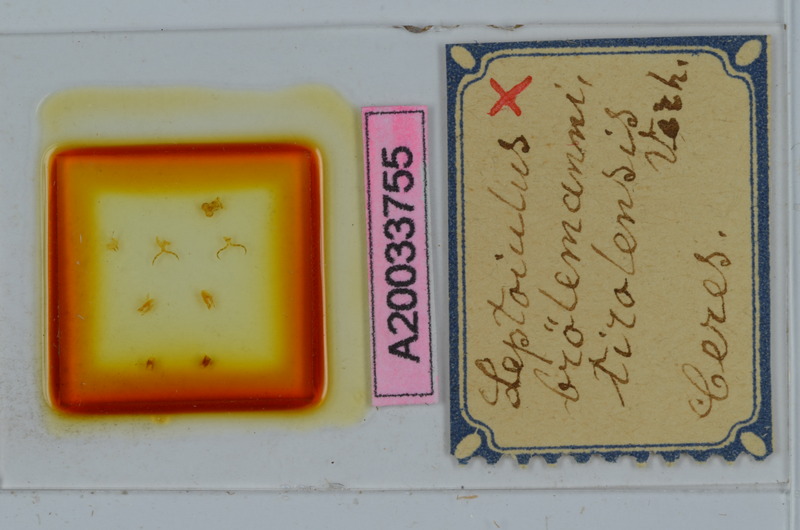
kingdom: Animalia
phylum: Arthropoda
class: Diplopoda
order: Julida
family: Julidae
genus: Leptoiulus
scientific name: Leptoiulus broelemanni
